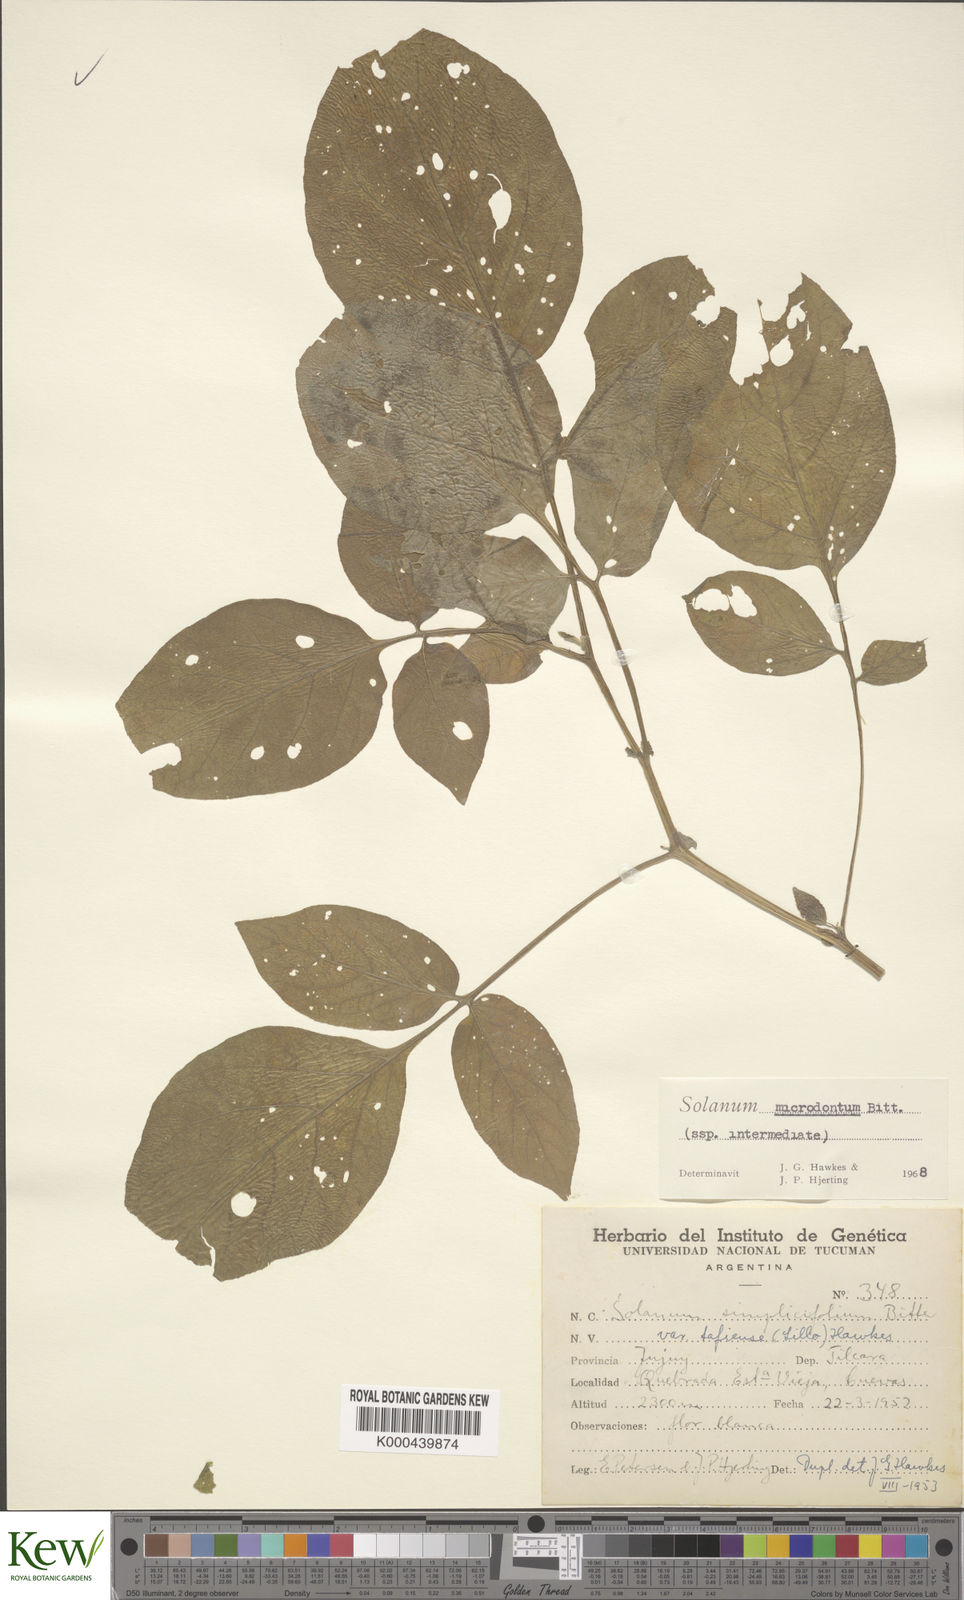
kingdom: Plantae
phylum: Tracheophyta
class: Magnoliopsida
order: Solanales
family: Solanaceae
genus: Solanum
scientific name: Solanum microdontum
